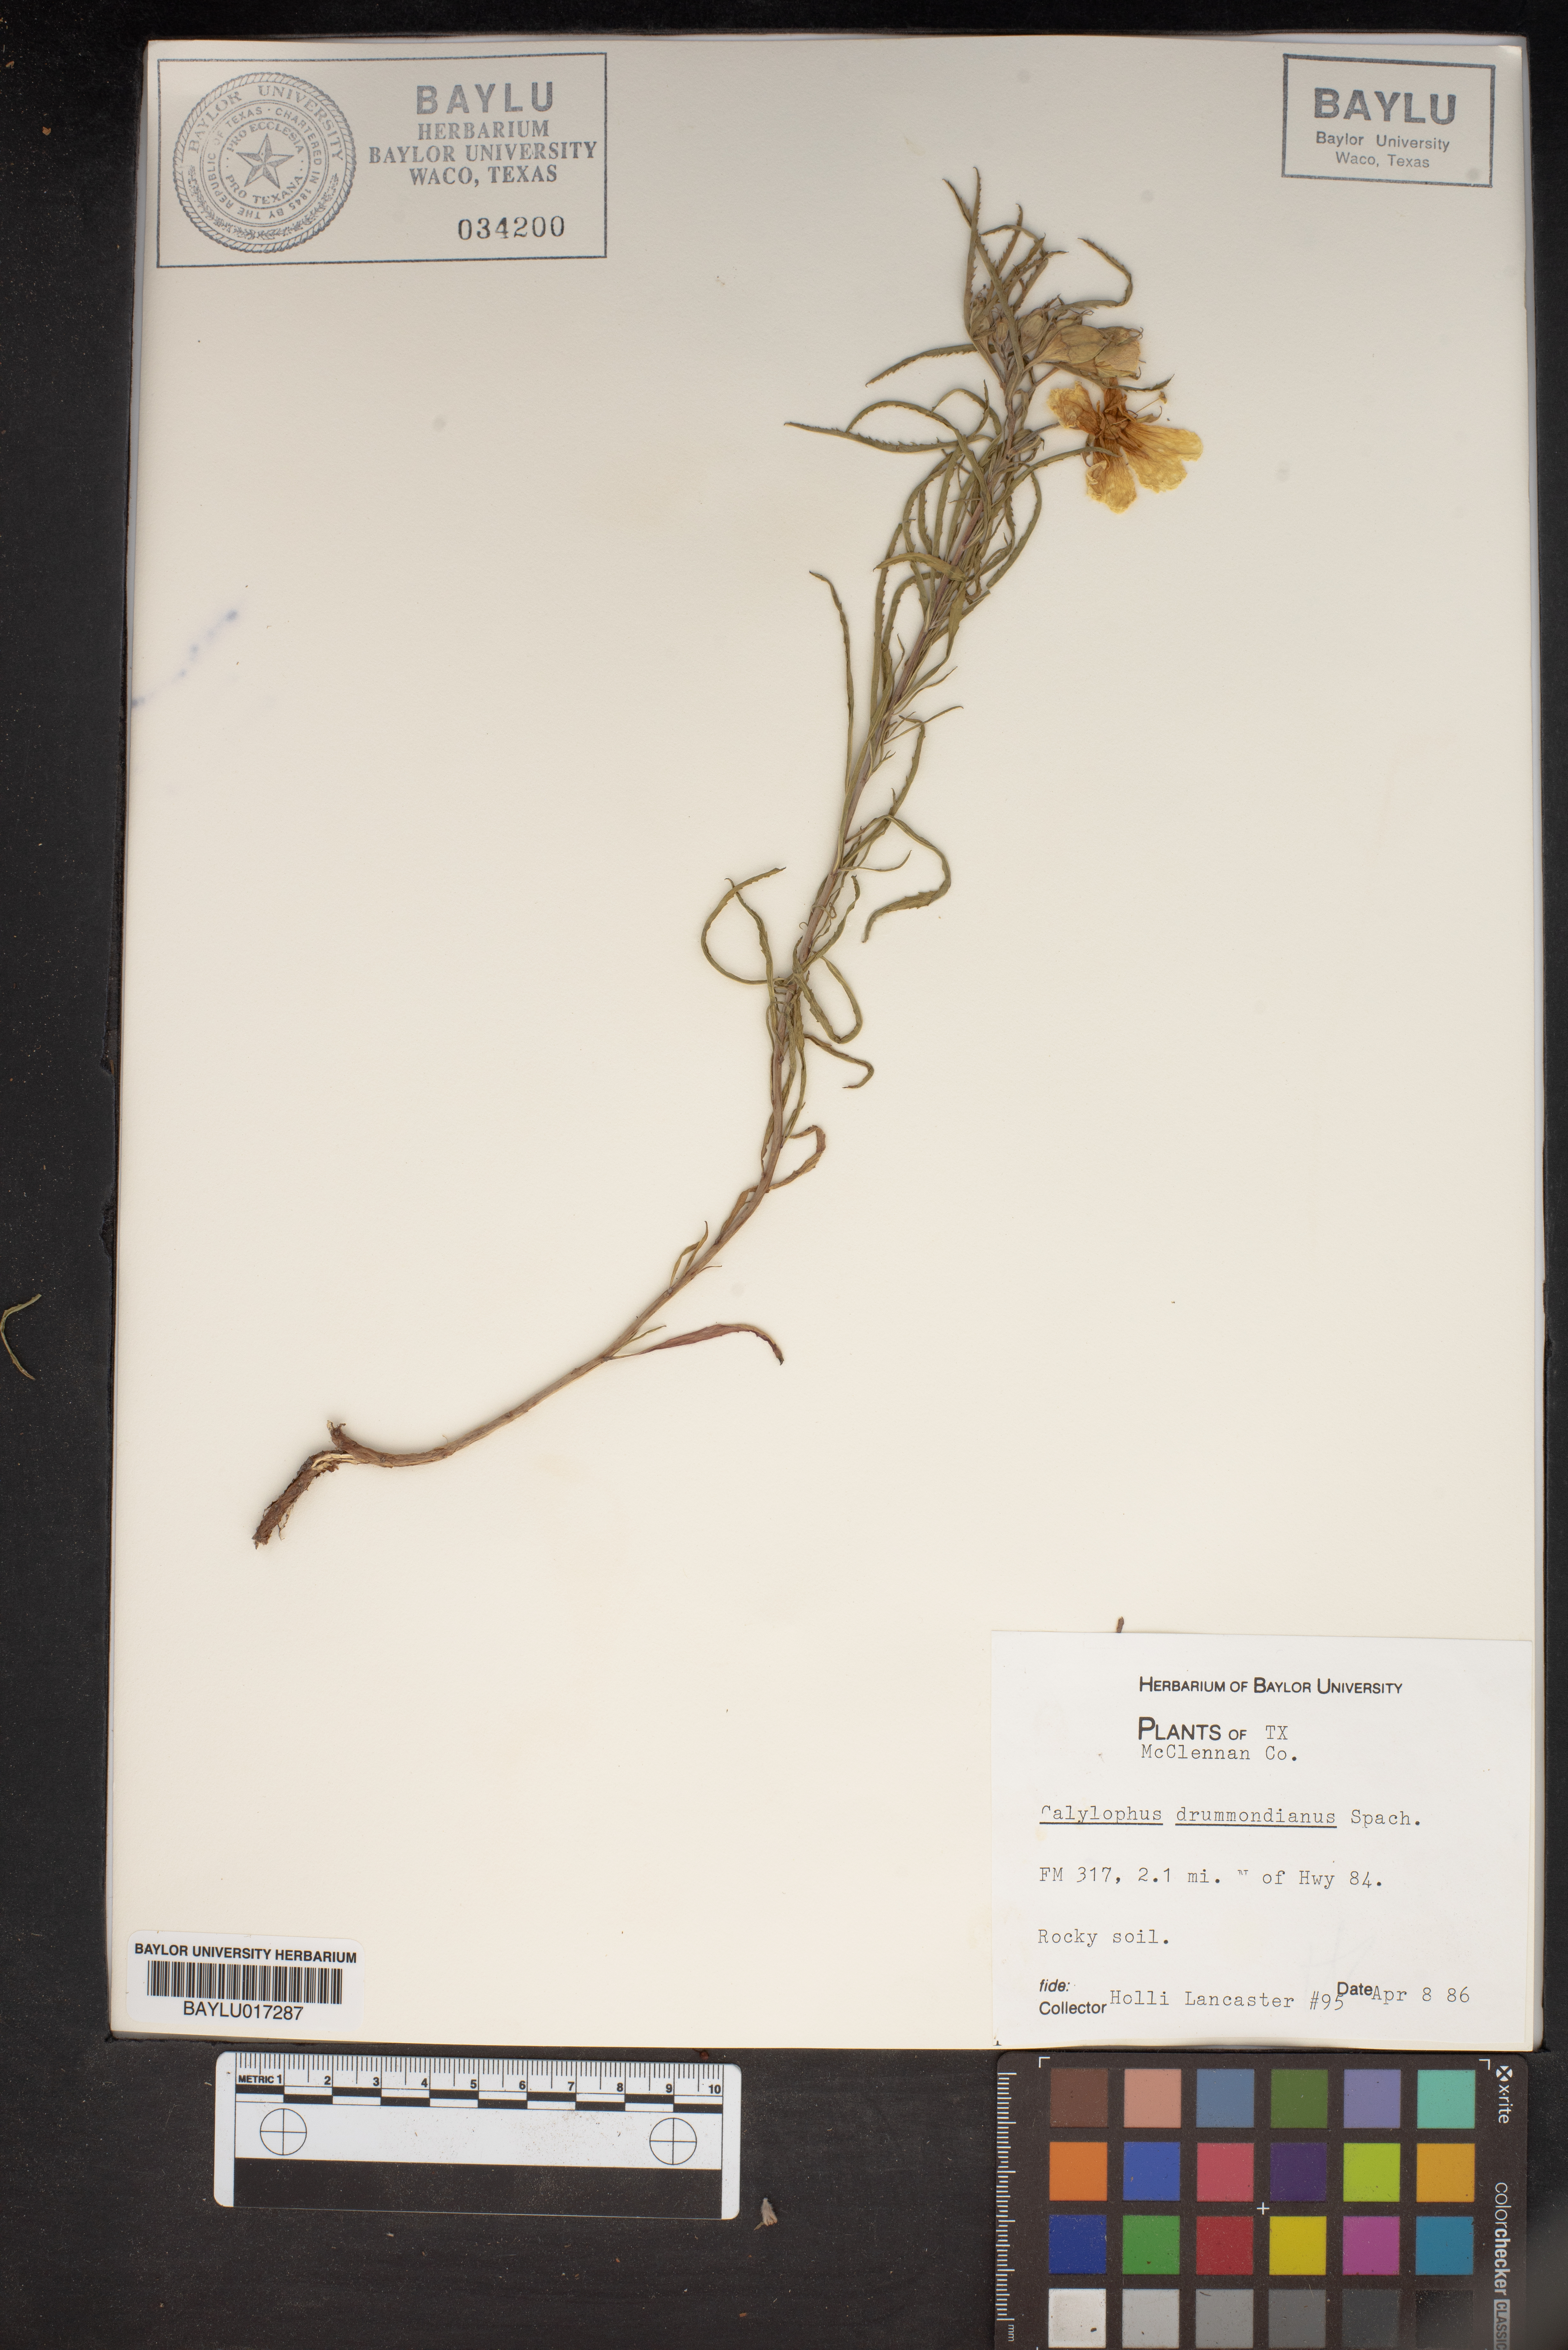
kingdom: Plantae
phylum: Tracheophyta
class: Magnoliopsida
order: Myrtales
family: Onagraceae
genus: Oenothera
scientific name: Oenothera serrulata
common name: Half-shrub calylophus
